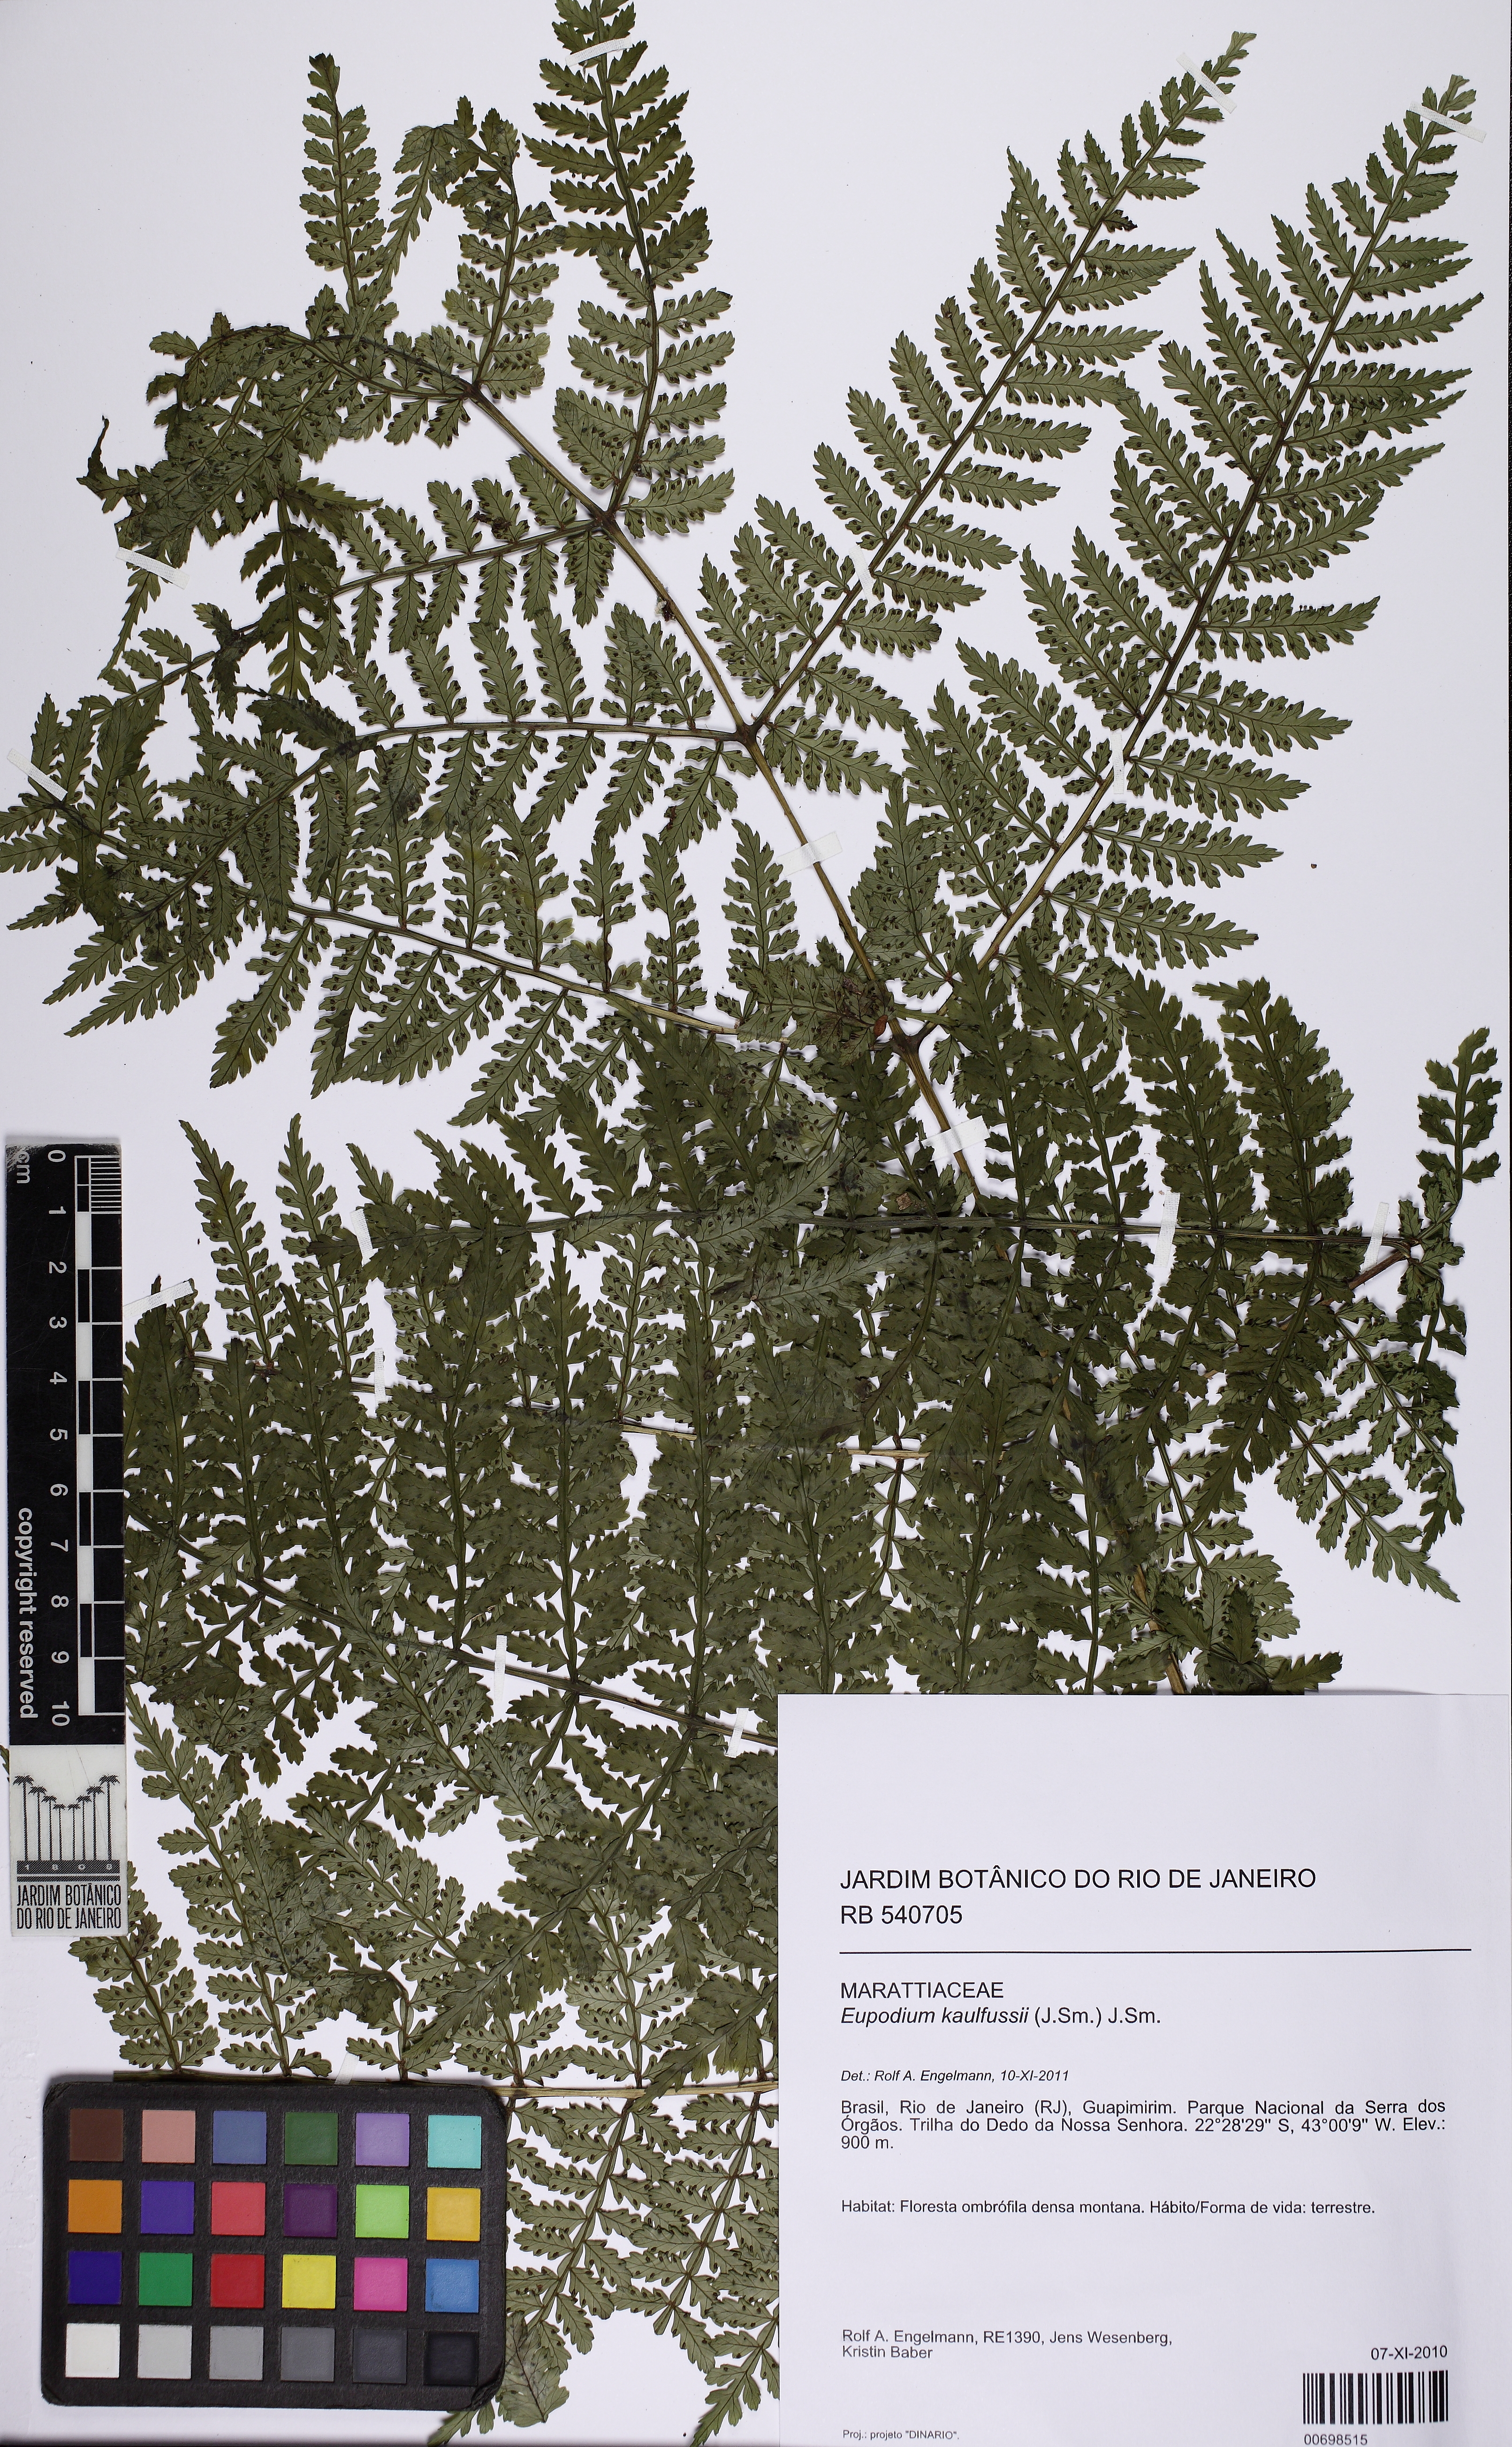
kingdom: Plantae
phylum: Tracheophyta
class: Polypodiopsida
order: Marattiales
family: Marattiaceae
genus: Eupodium
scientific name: Eupodium kaulfussii
